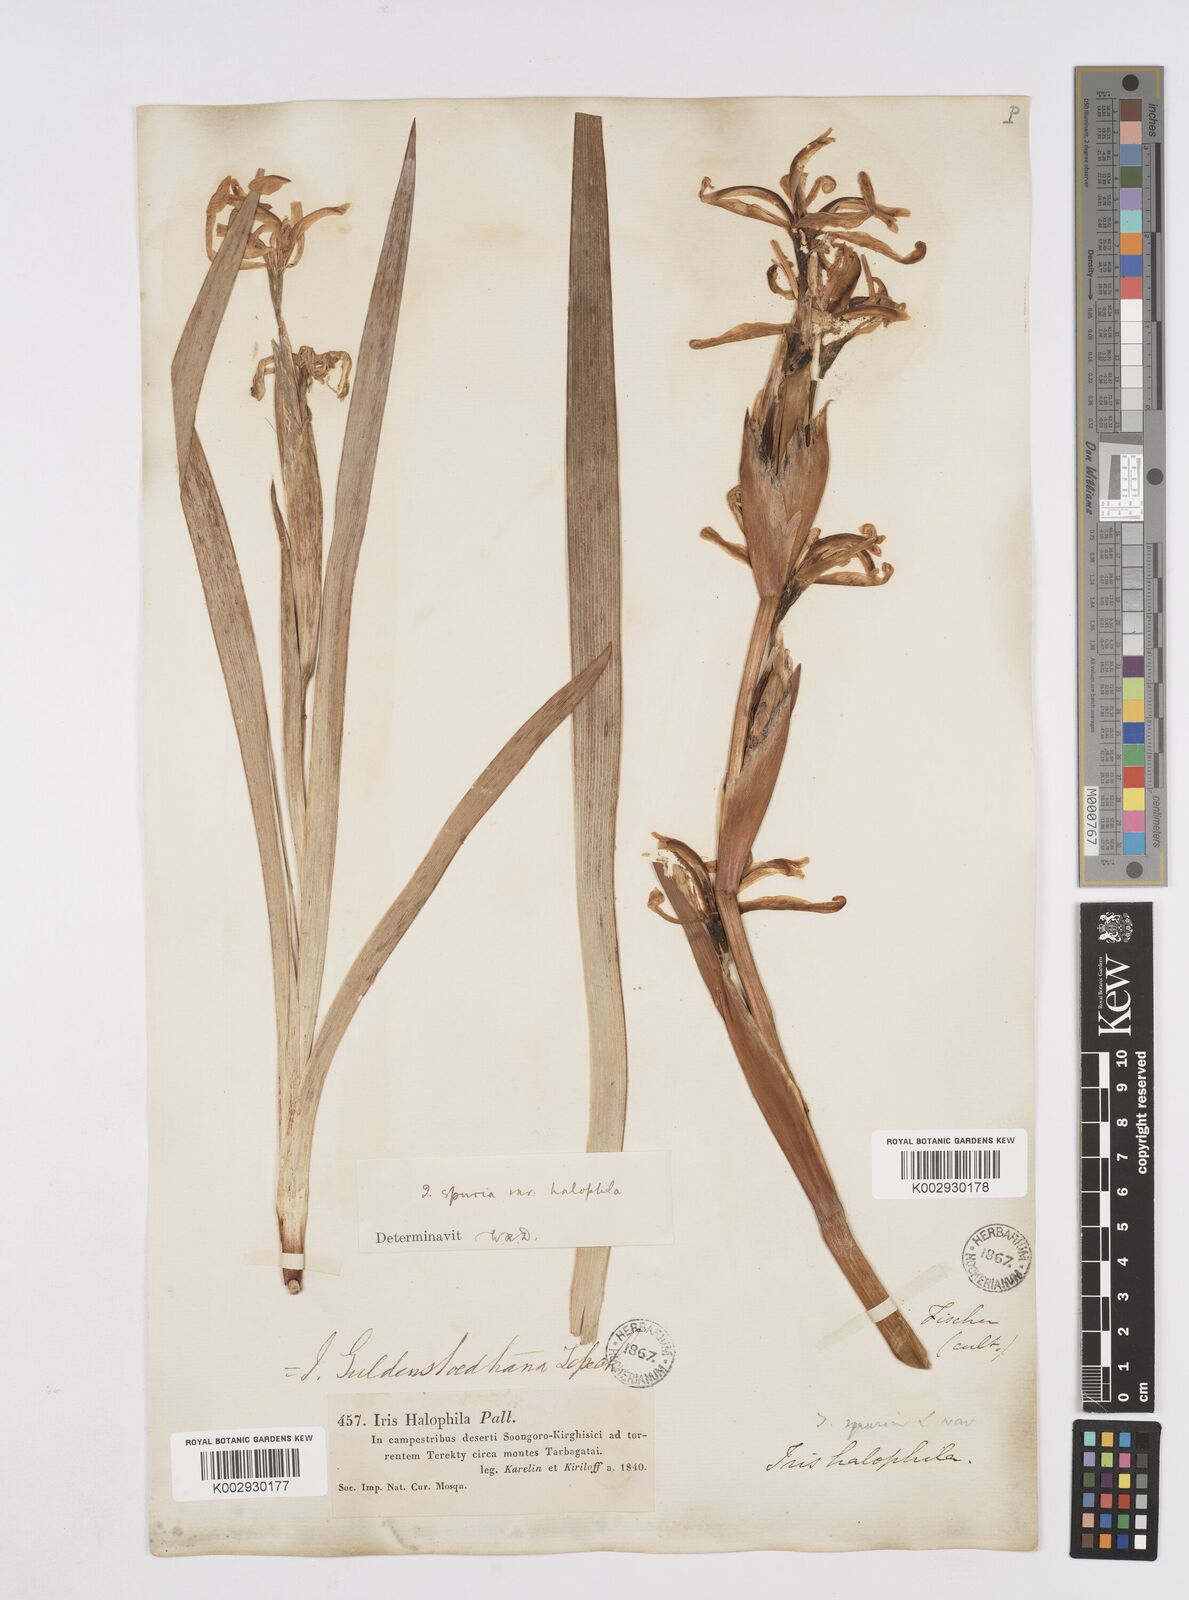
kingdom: Plantae
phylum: Tracheophyta
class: Liliopsida
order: Asparagales
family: Iridaceae
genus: Iris
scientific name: Iris halophila
